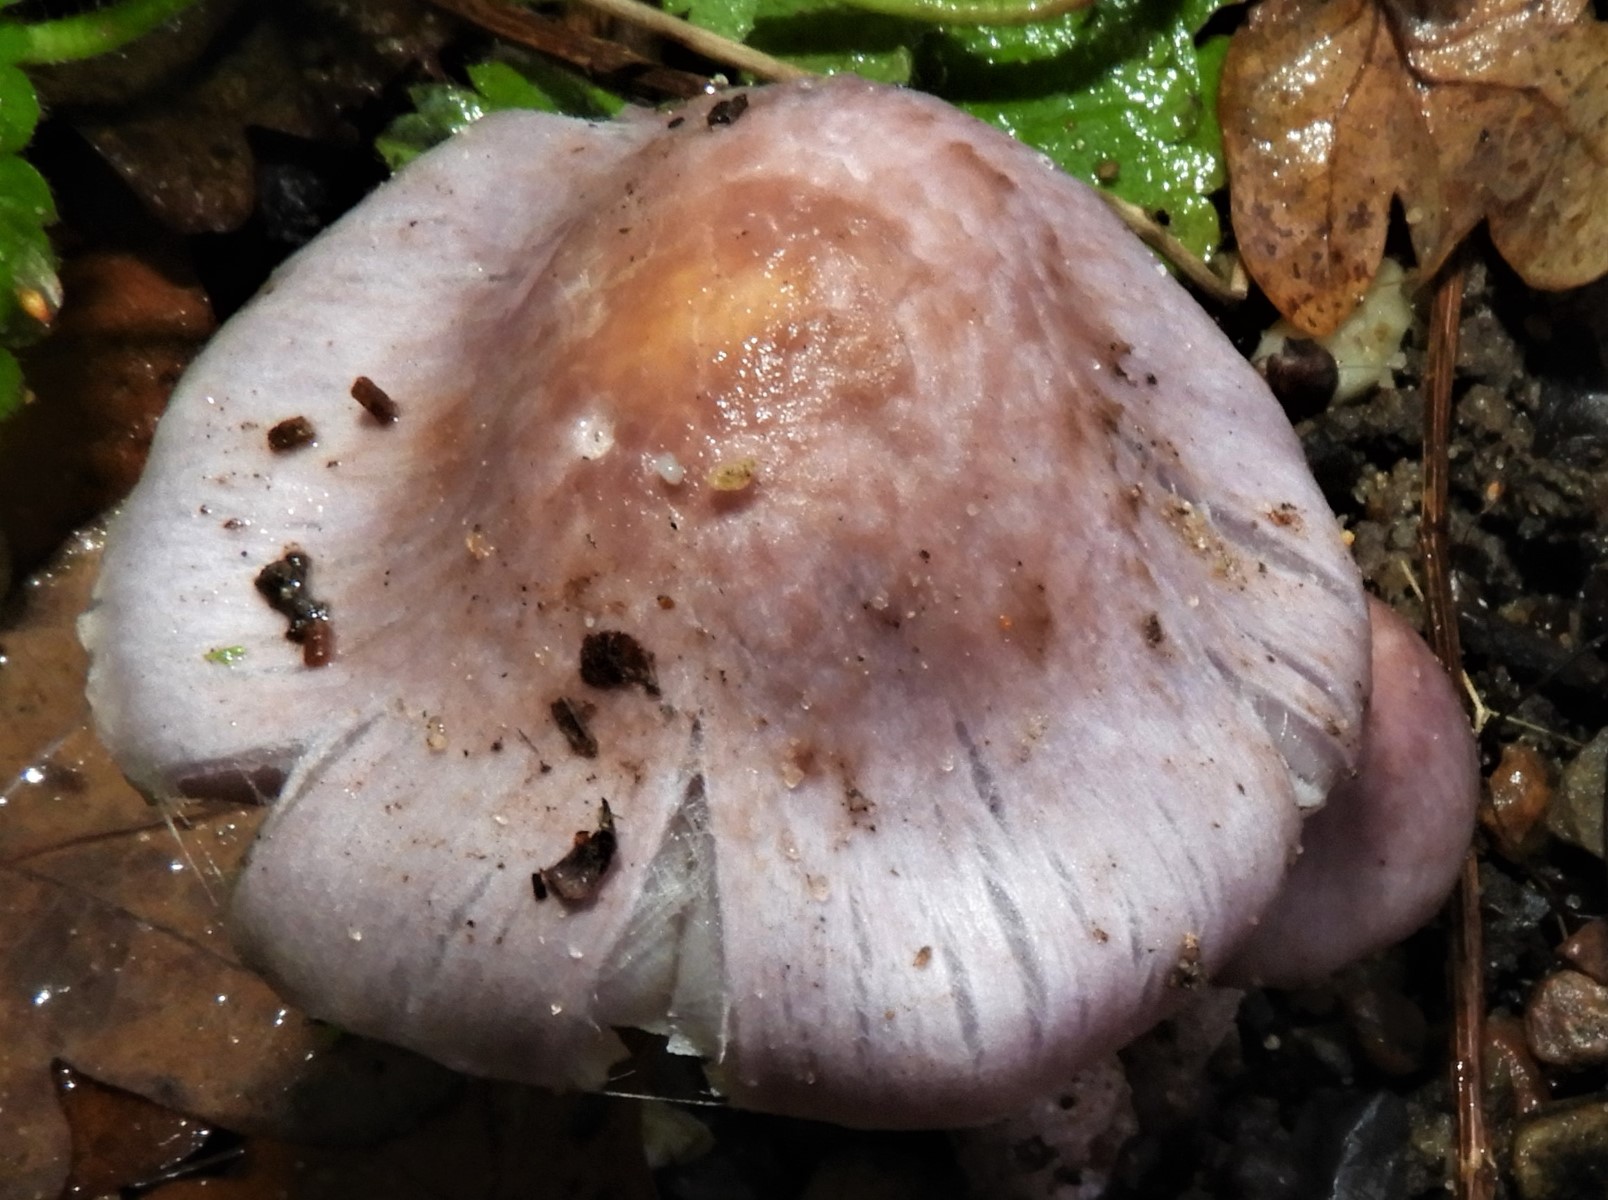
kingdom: Fungi
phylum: Basidiomycota
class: Agaricomycetes
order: Agaricales
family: Inocybaceae
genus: Inocybe
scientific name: Inocybe ionolepis
